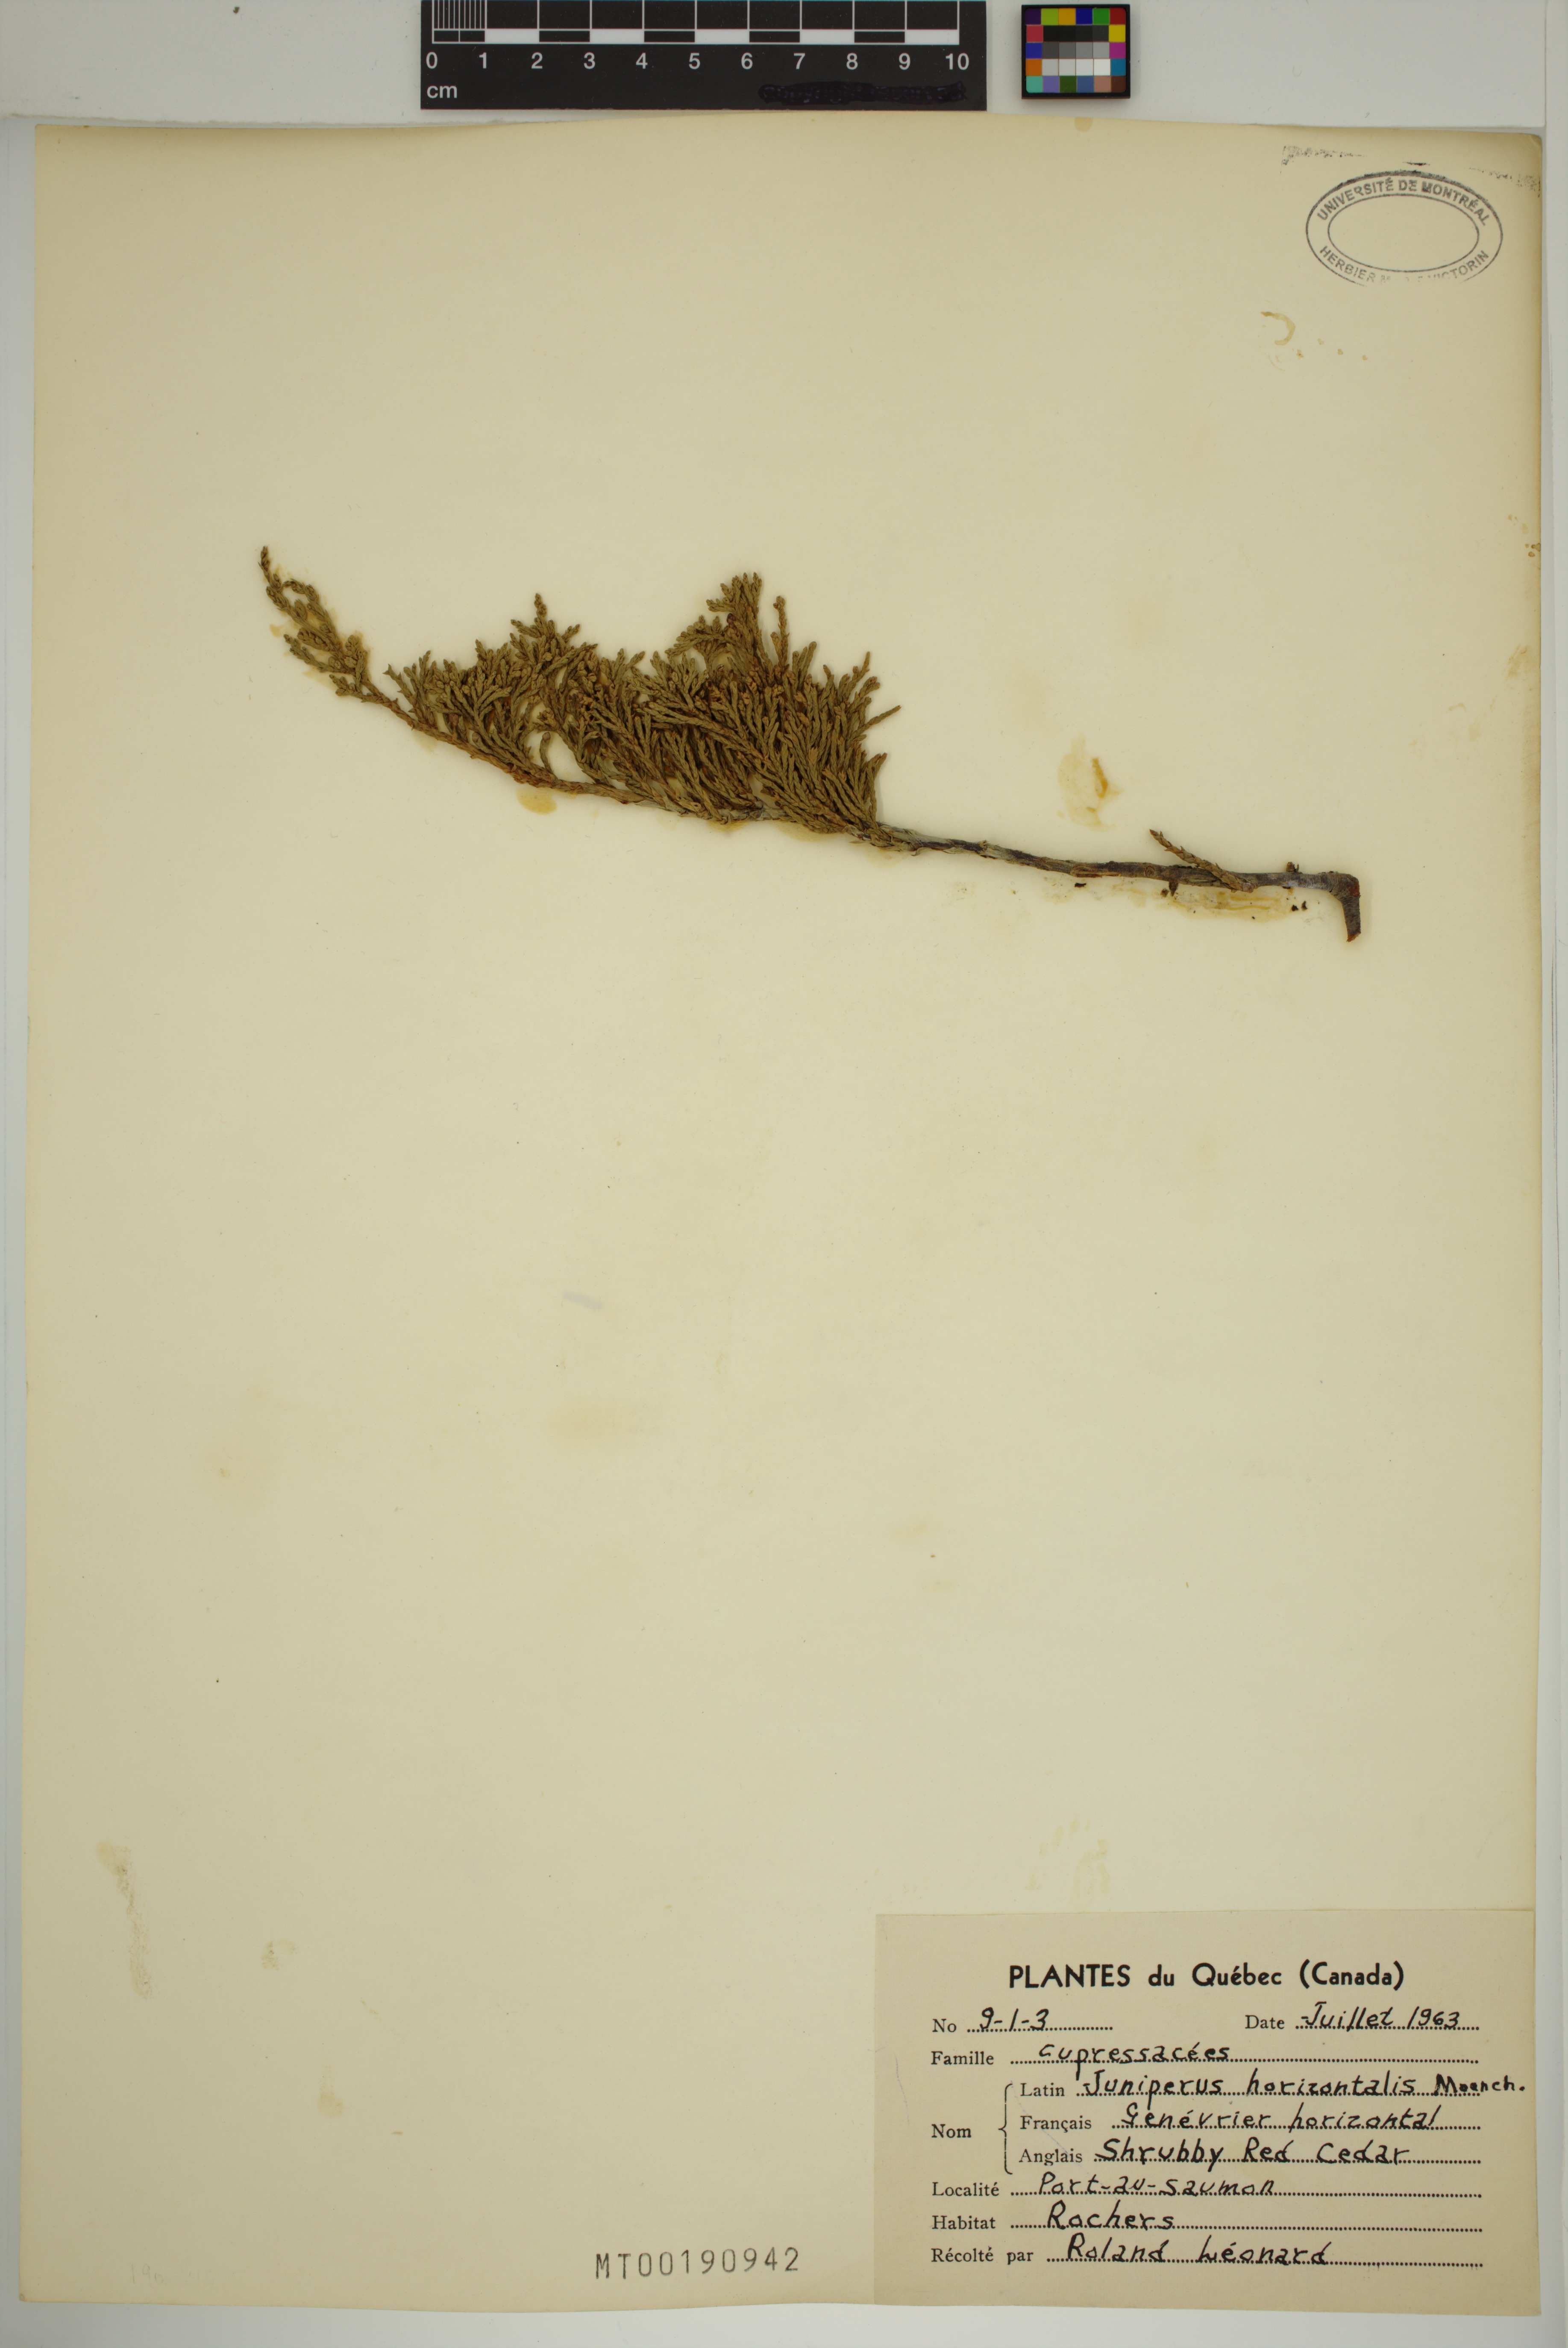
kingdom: Plantae
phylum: Tracheophyta
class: Pinopsida
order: Pinales
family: Cupressaceae
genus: Juniperus
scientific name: Juniperus horizontalis
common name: Creeping juniper
